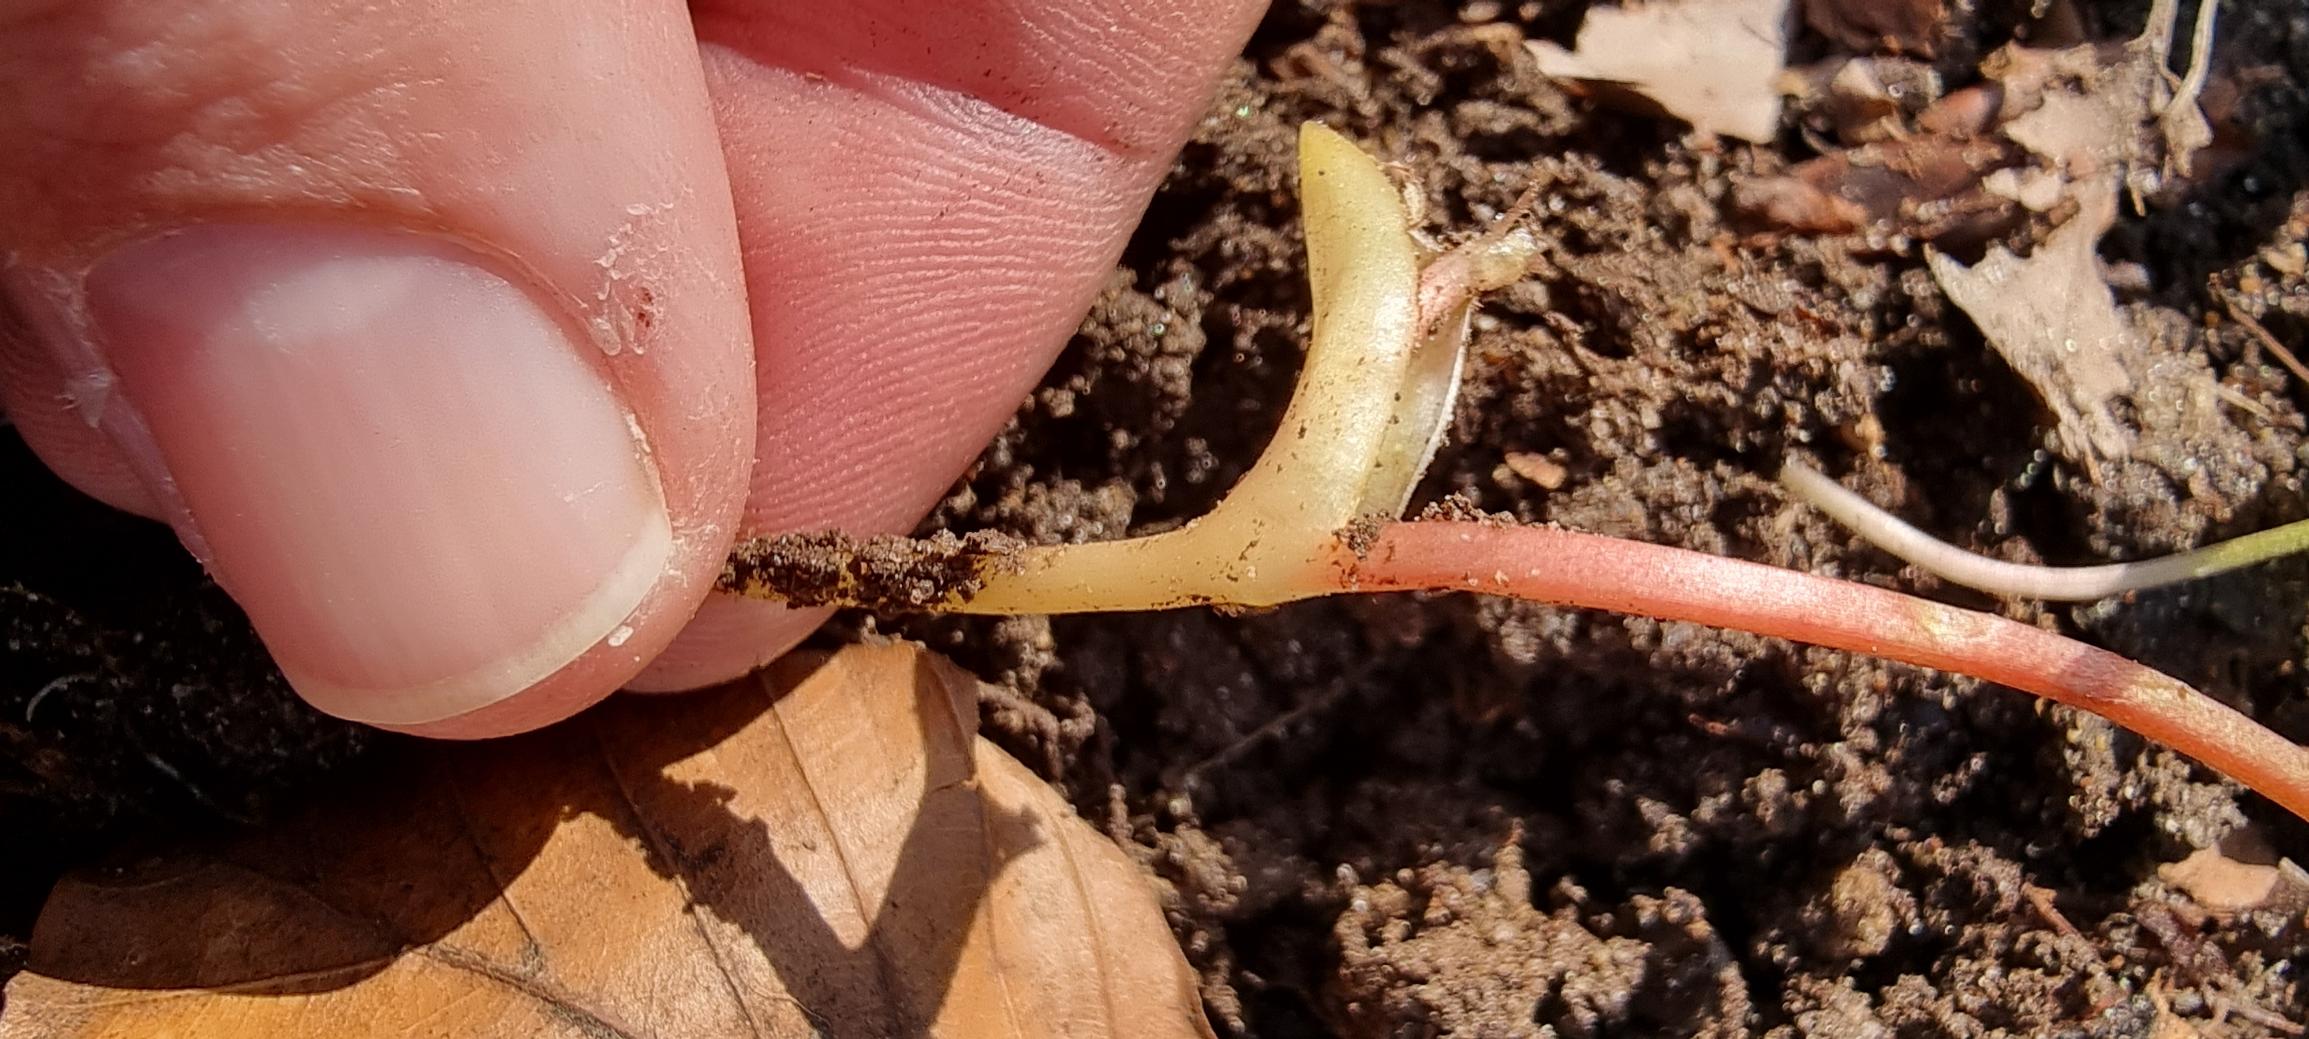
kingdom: Plantae
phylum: Tracheophyta
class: Magnoliopsida
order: Ranunculales
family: Papaveraceae
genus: Corydalis
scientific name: Corydalis intermedia
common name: Liden lærkespore
